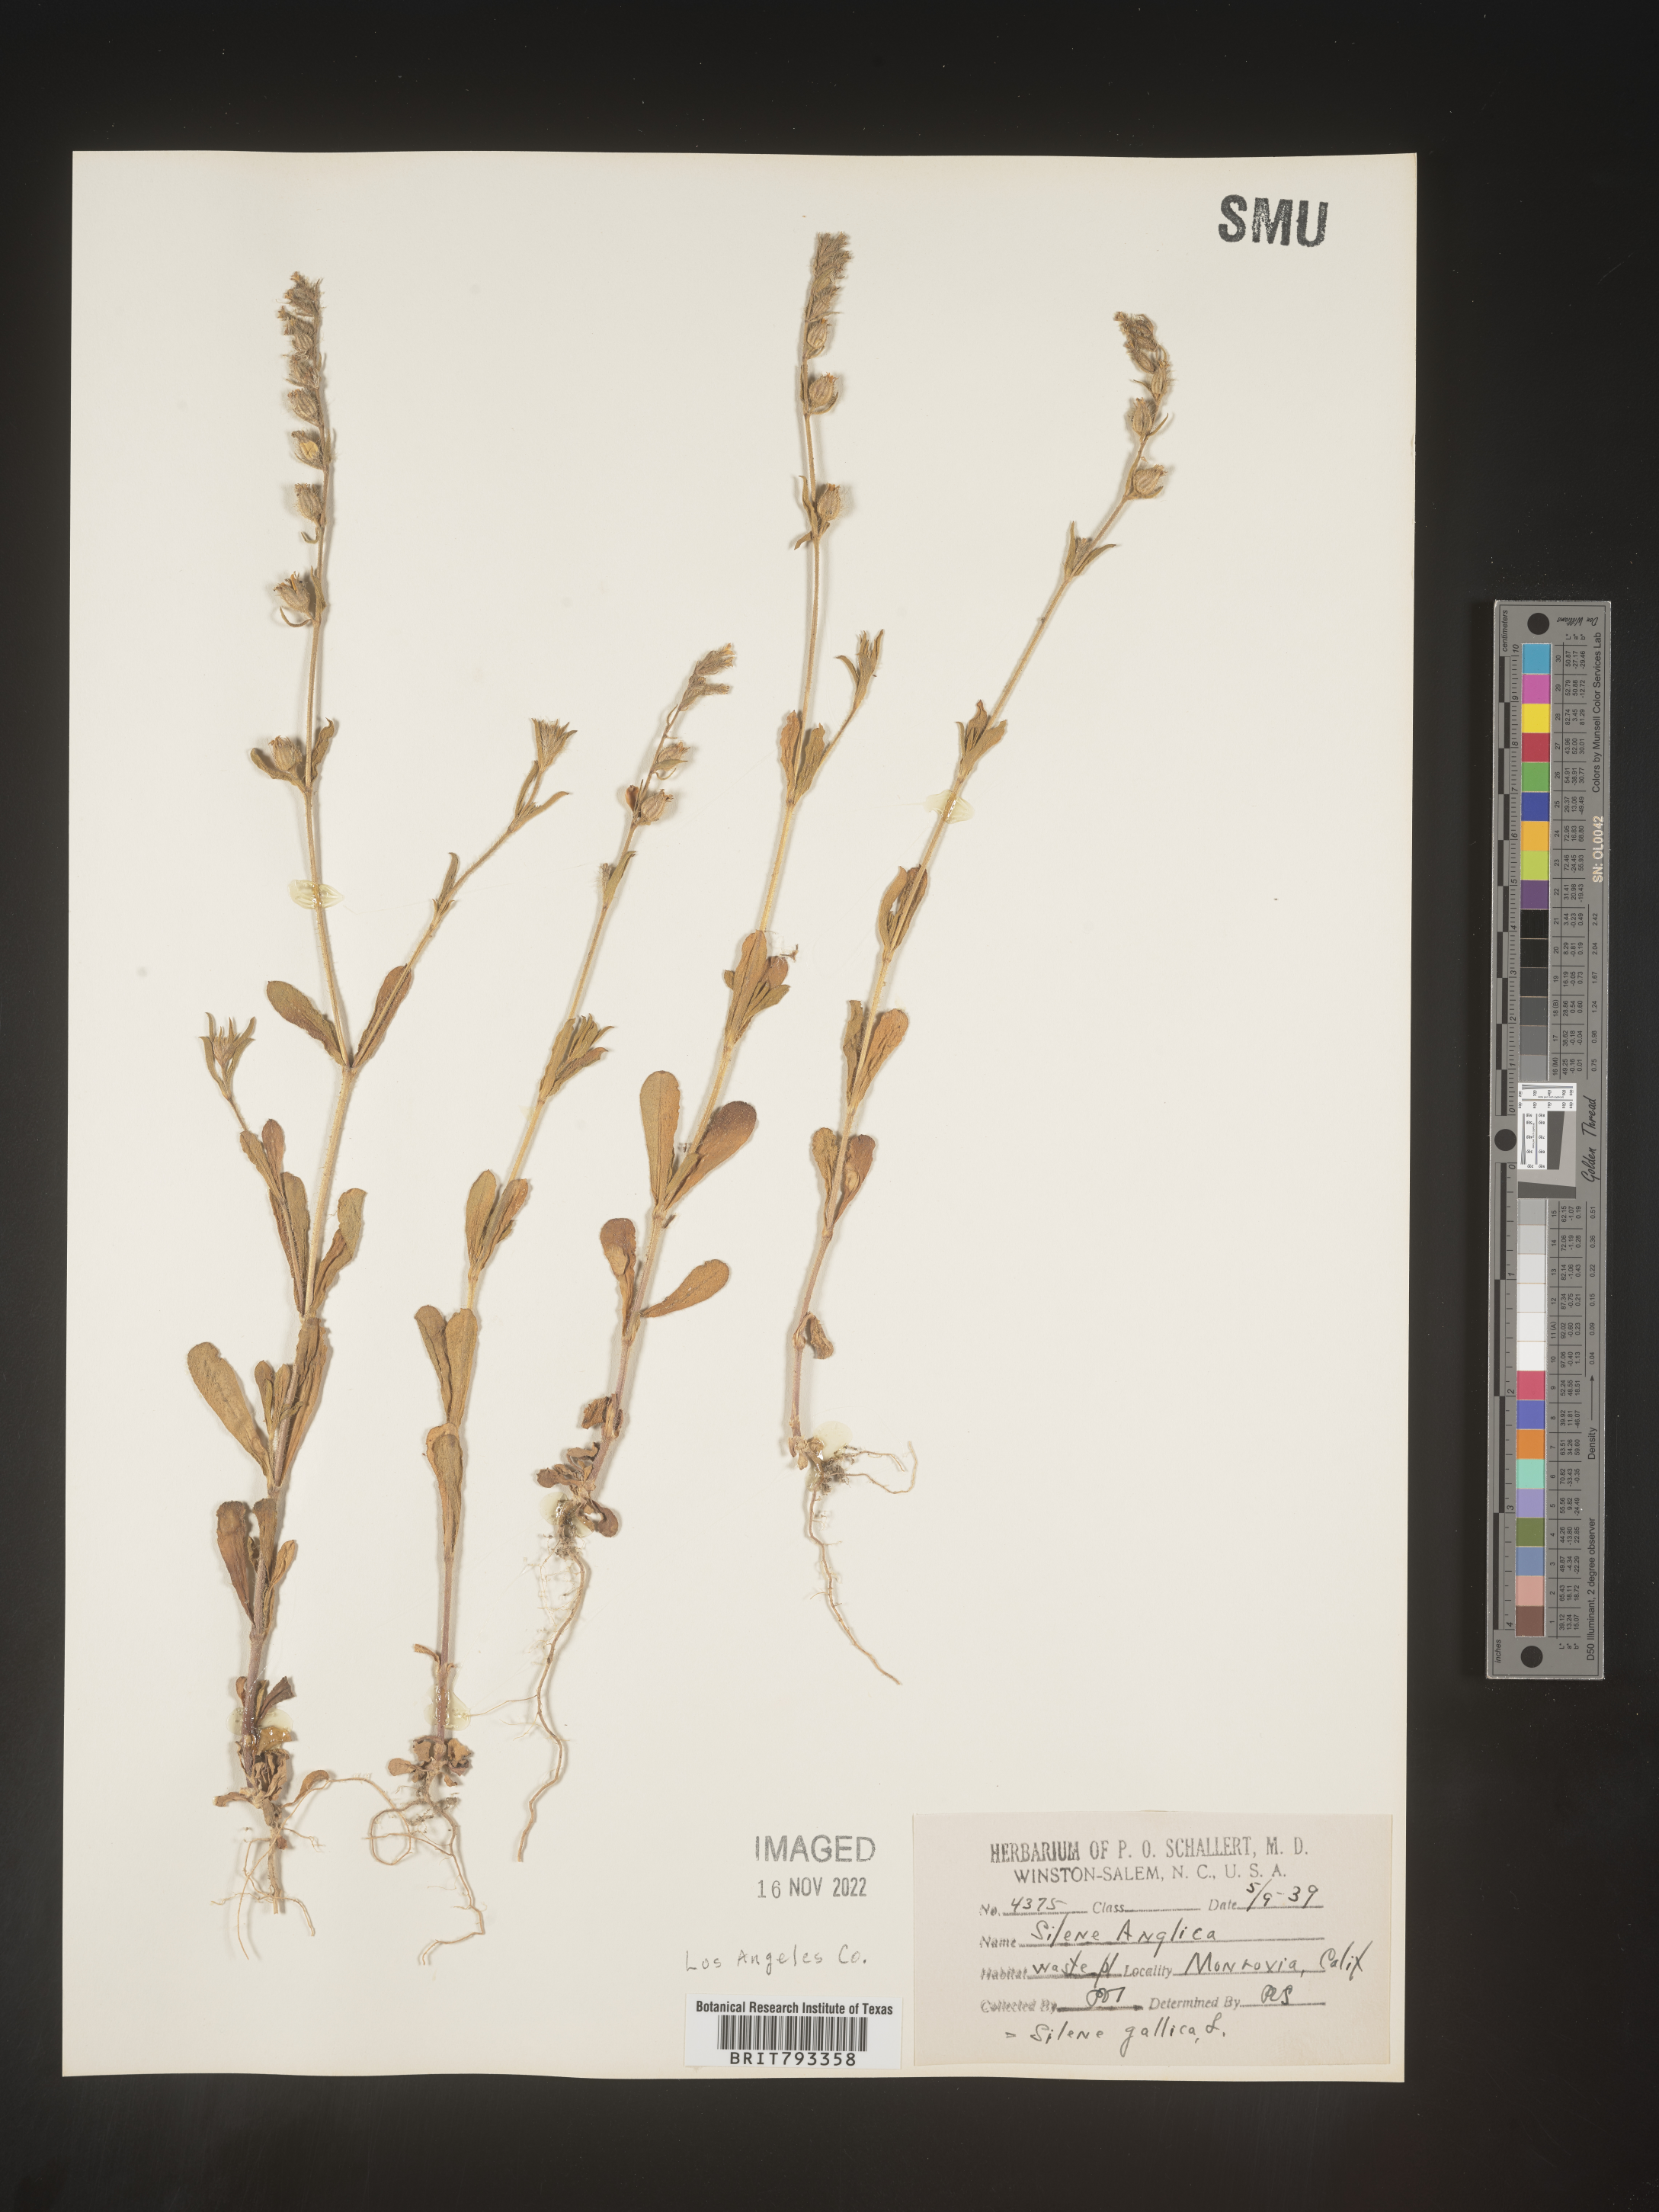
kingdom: Plantae
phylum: Tracheophyta
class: Magnoliopsida
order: Caryophyllales
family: Caryophyllaceae
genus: Silene
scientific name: Silene gallica
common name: Small-flowered catchfly
